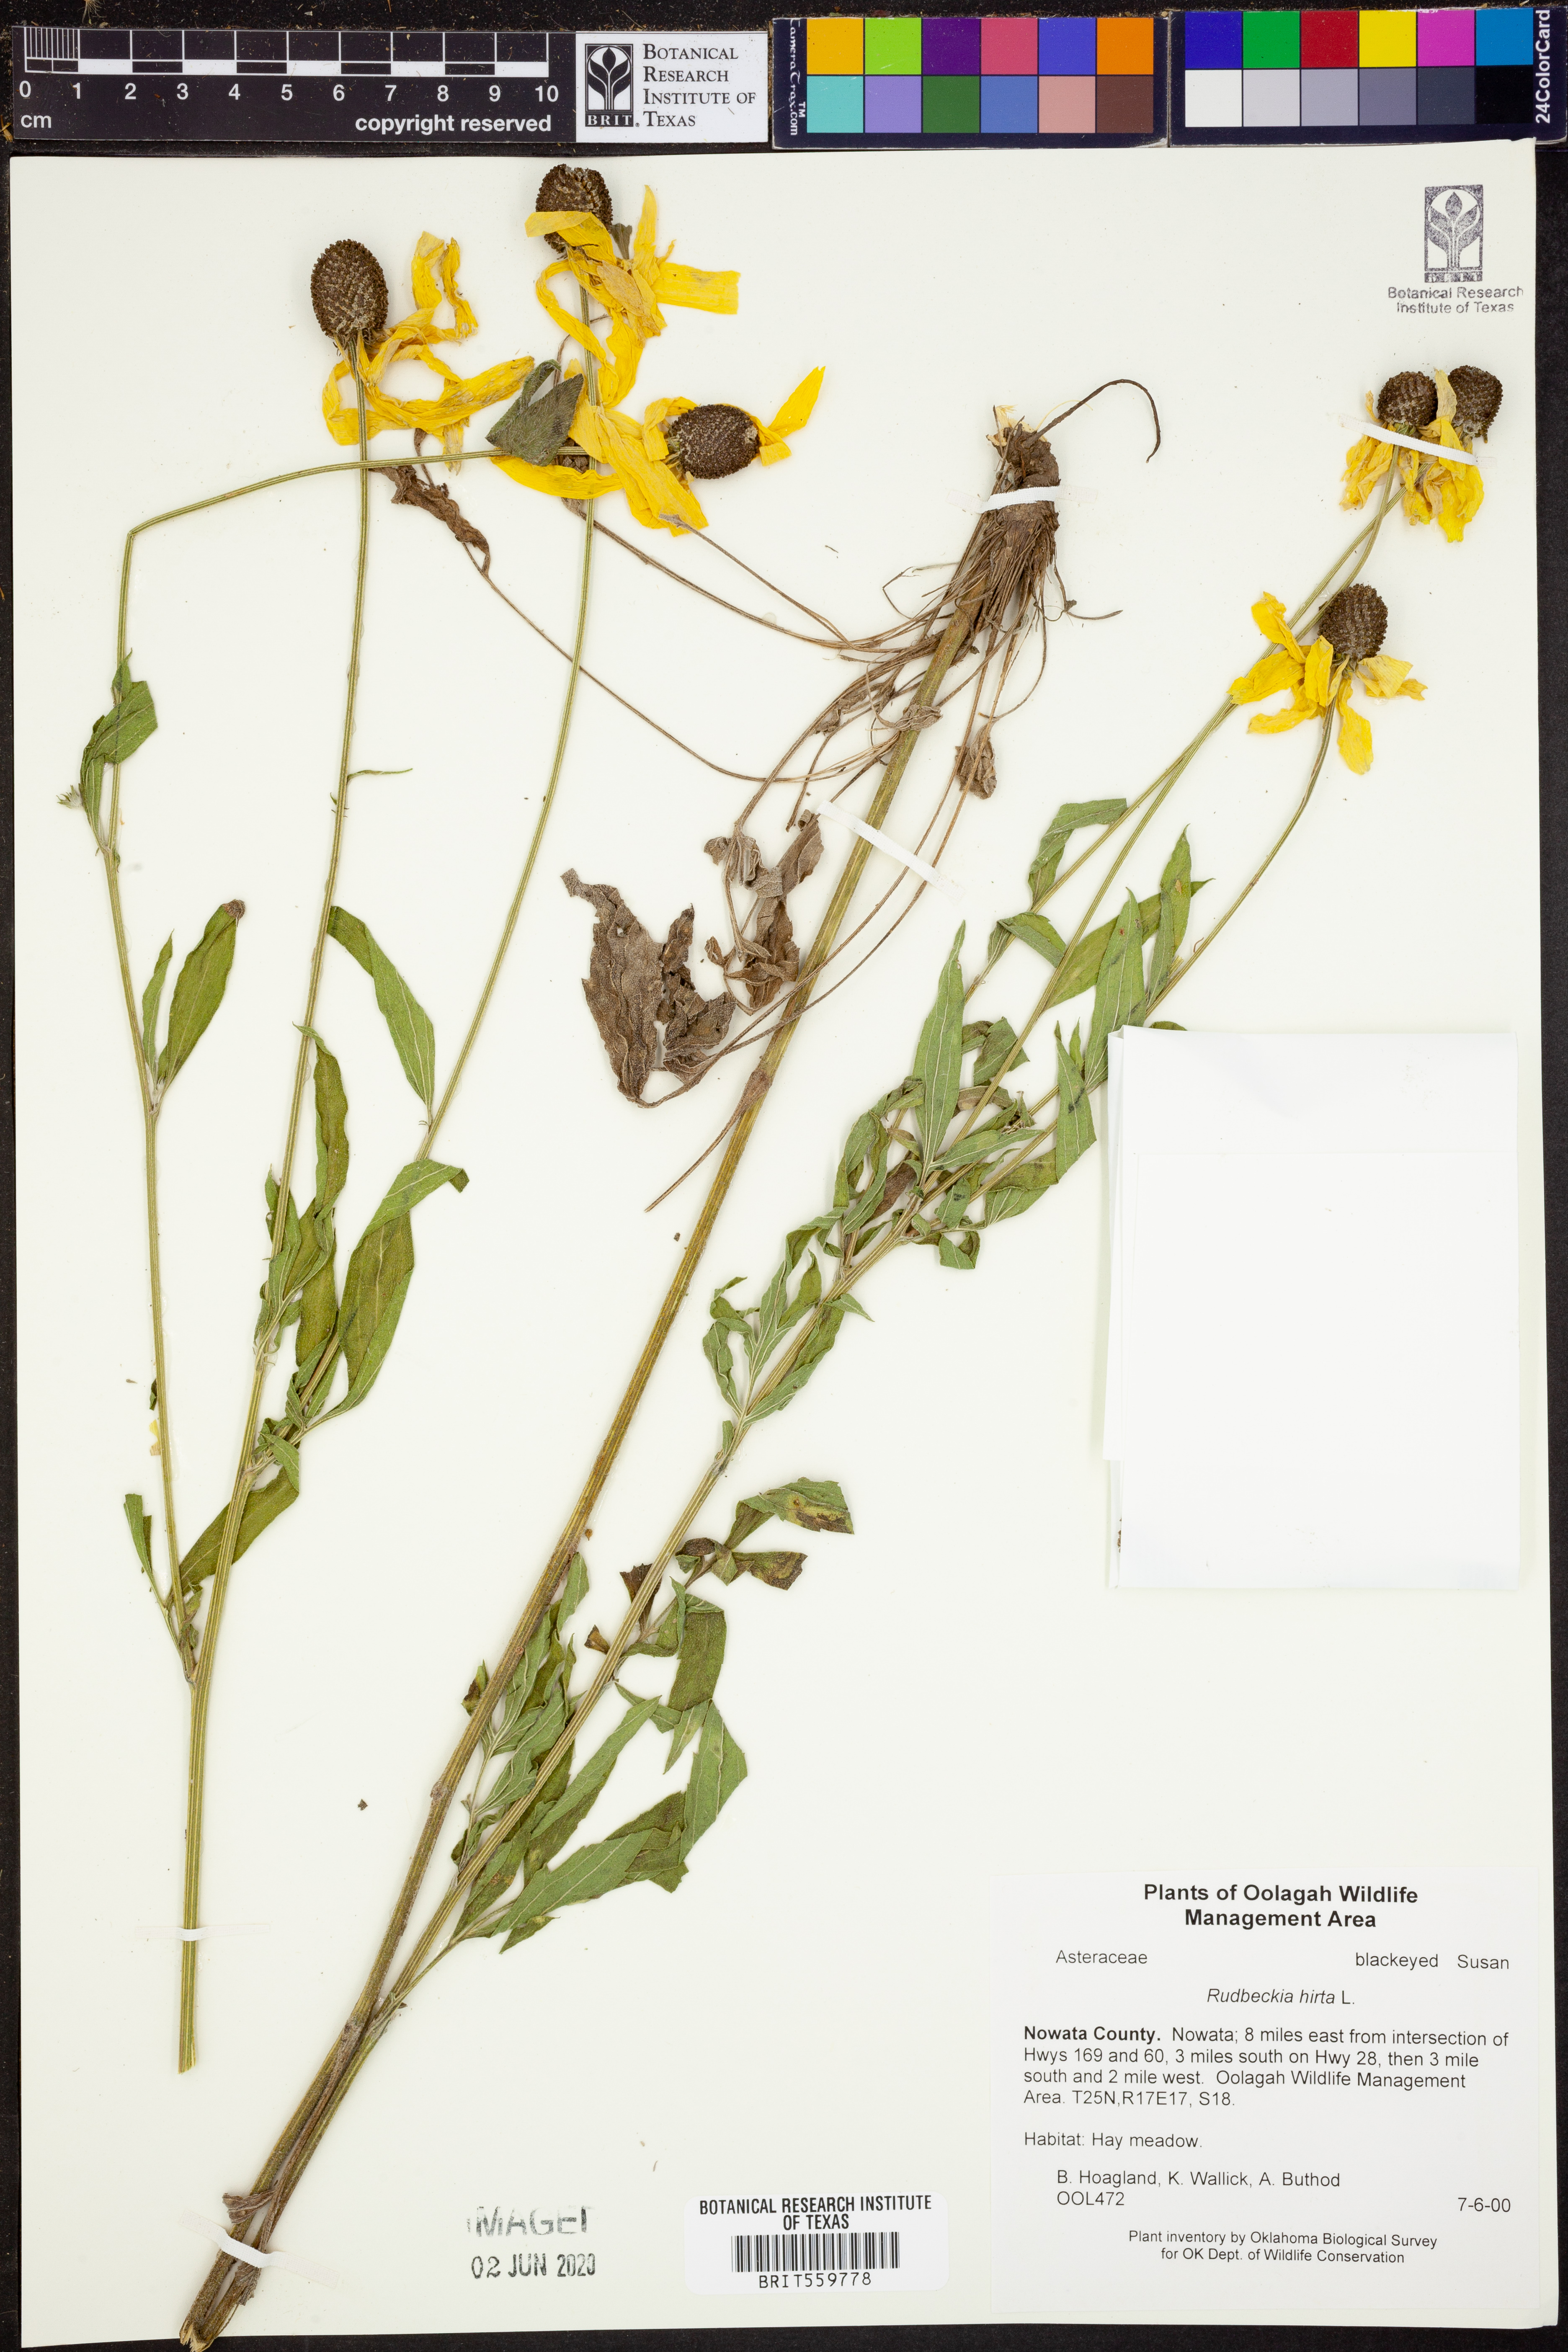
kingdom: Plantae
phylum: Tracheophyta
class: Magnoliopsida
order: Asterales
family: Asteraceae
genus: Rudbeckia
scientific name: Rudbeckia hirta
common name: Black-eyed-susan
